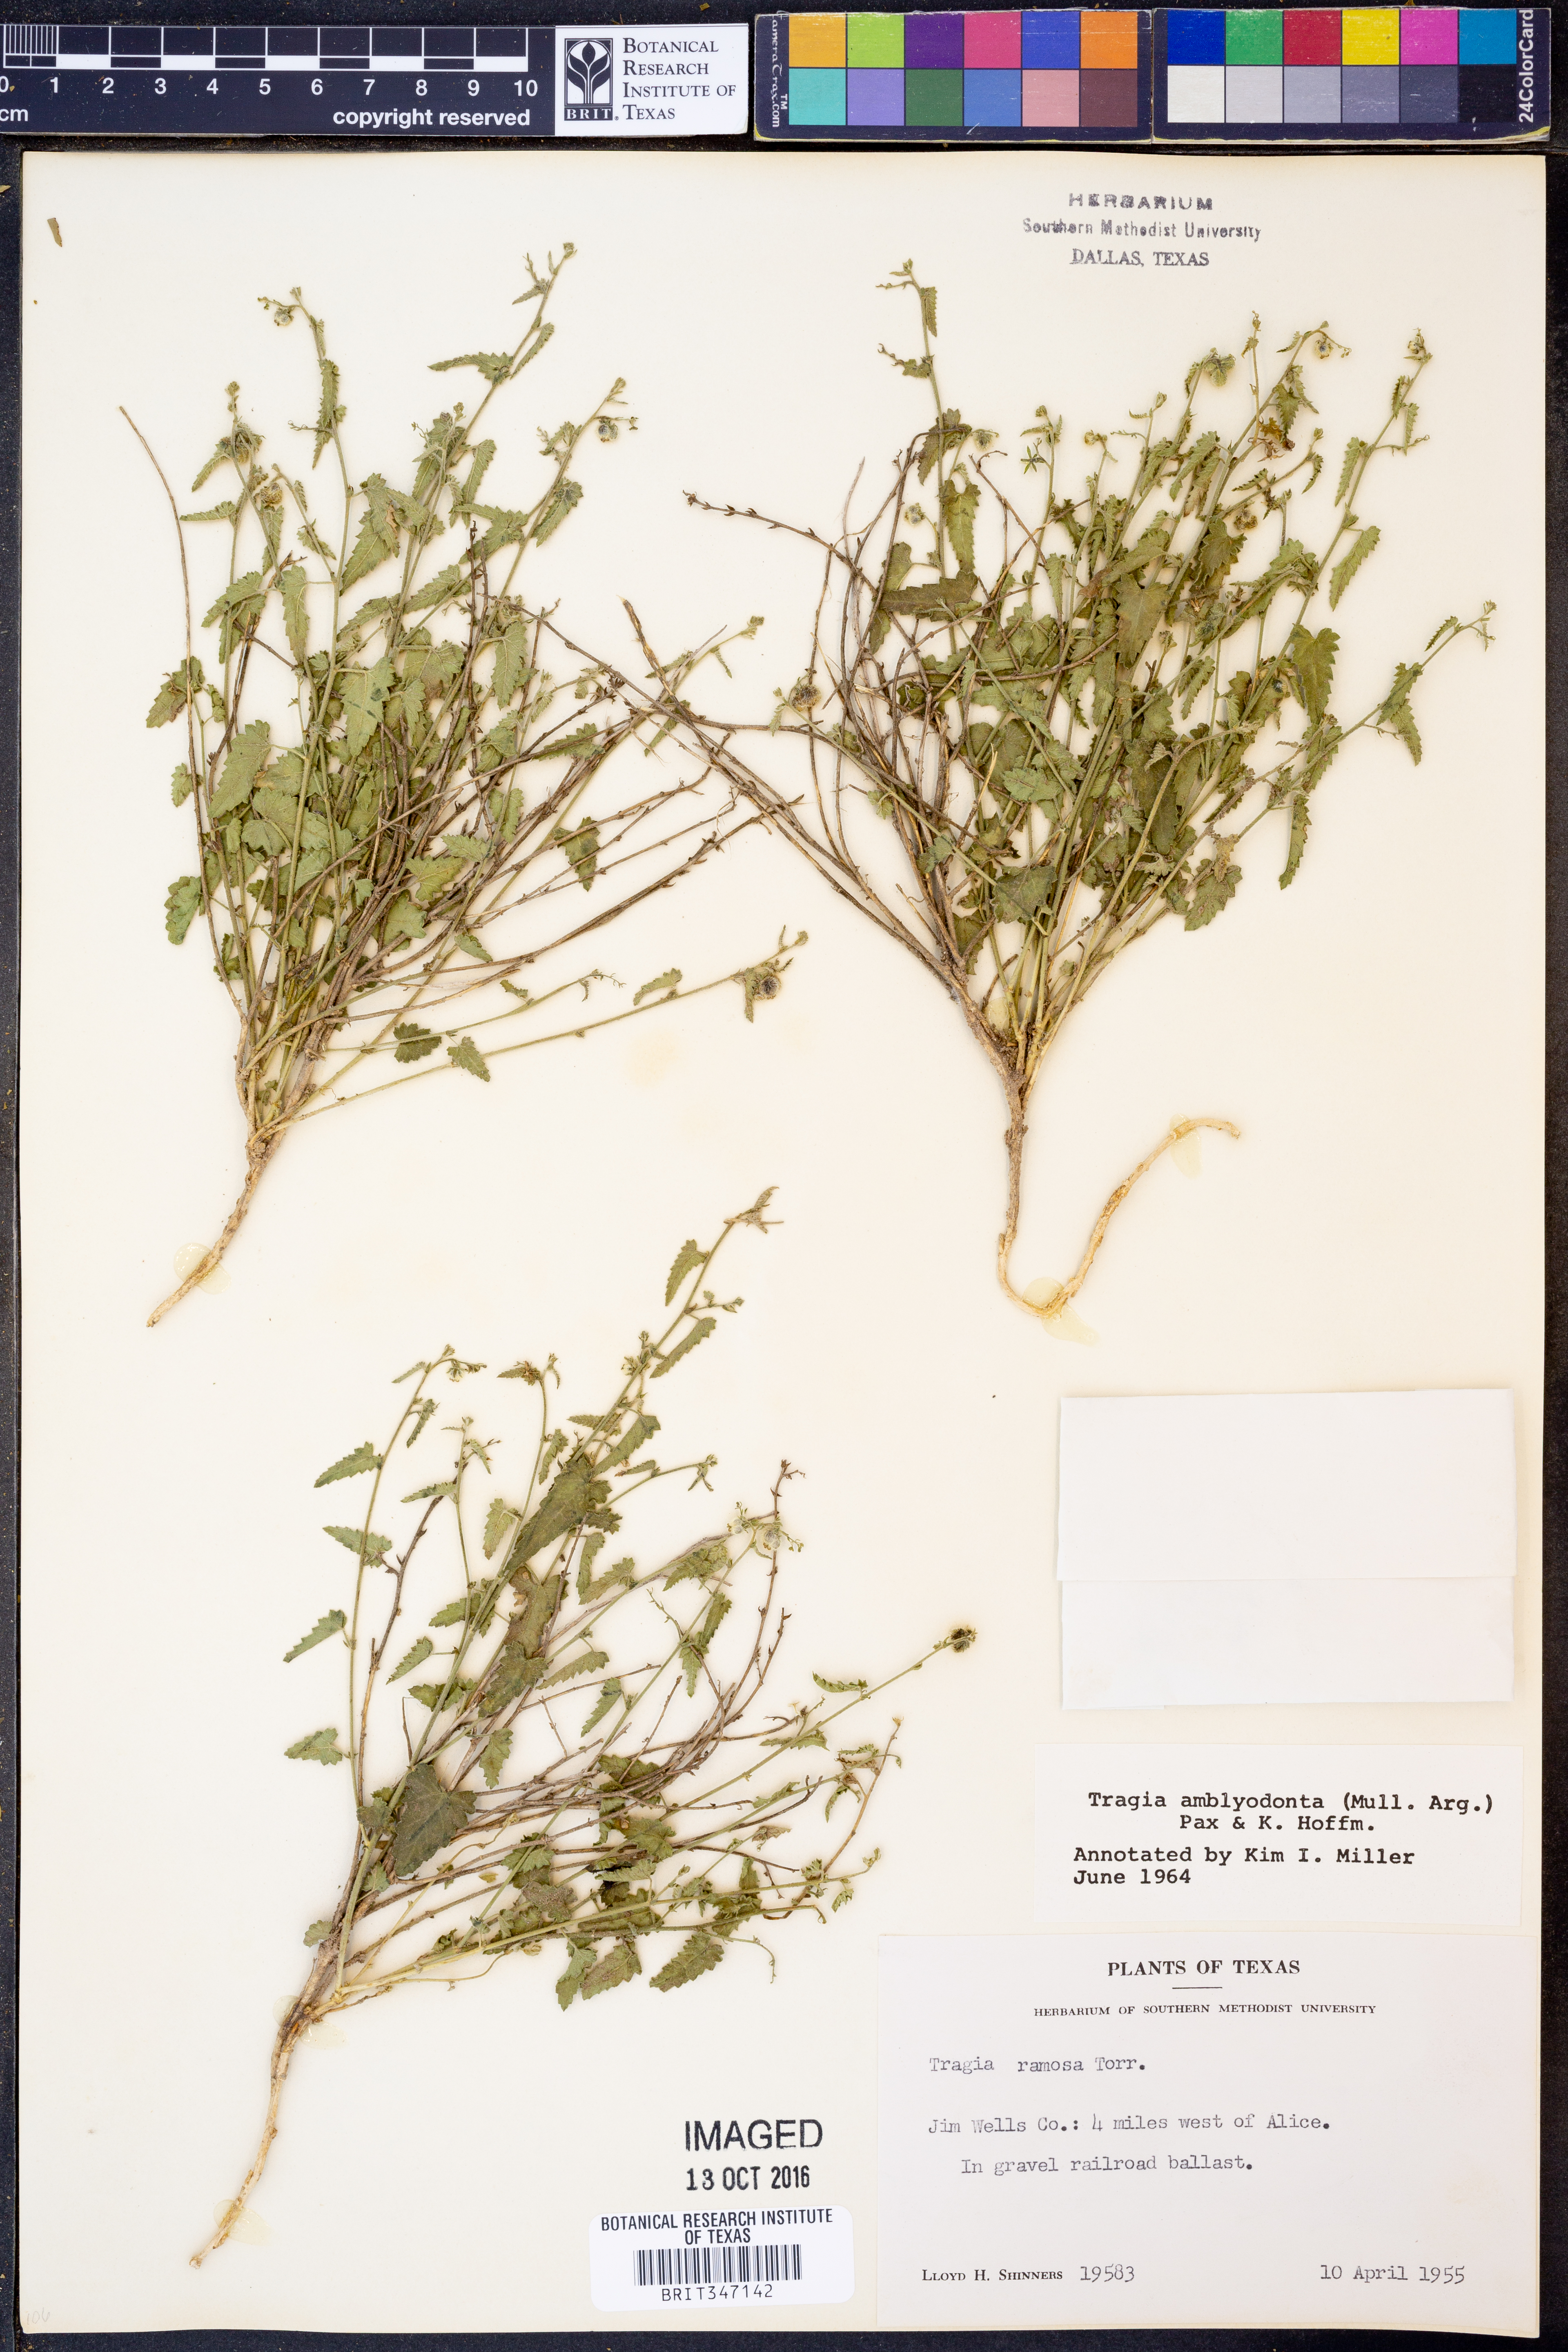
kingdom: Plantae
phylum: Tracheophyta
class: Magnoliopsida
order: Malpighiales
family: Euphorbiaceae
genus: Tragia
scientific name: Tragia amblyodonta
